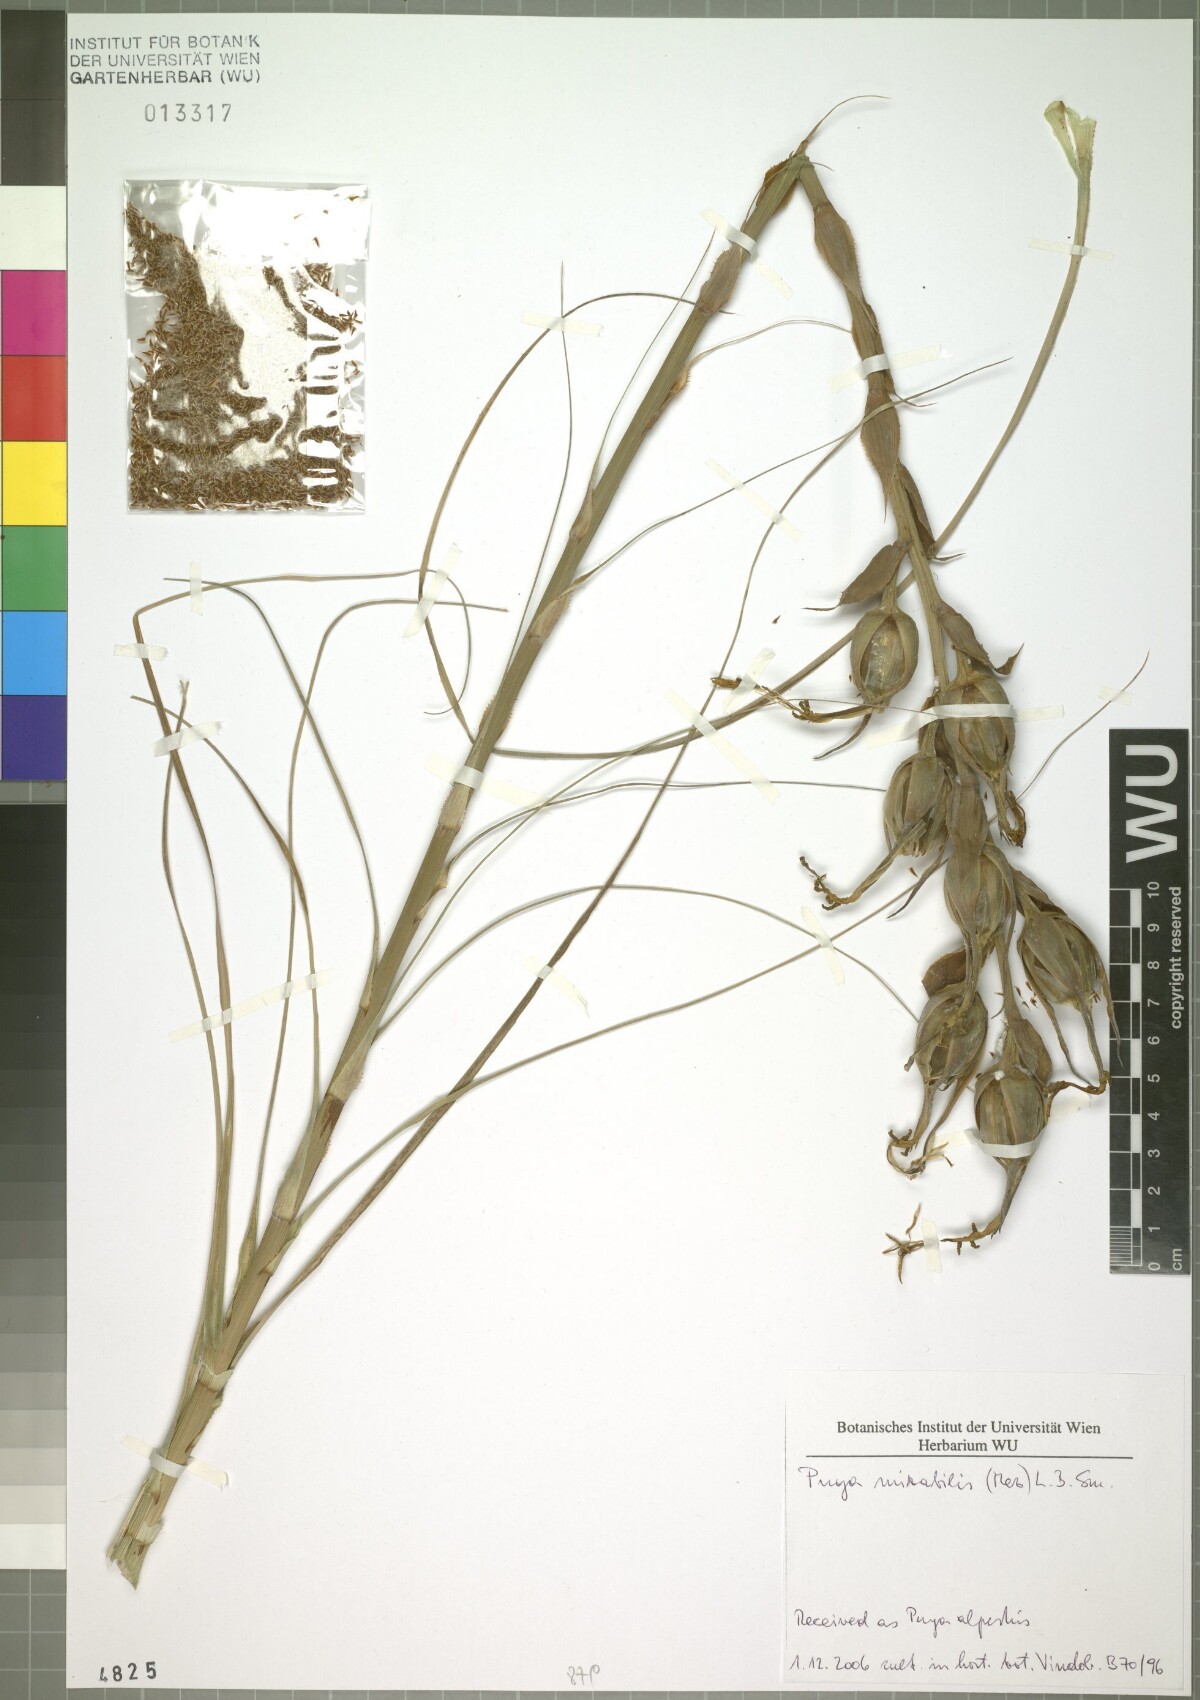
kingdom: Plantae
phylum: Tracheophyta
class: Liliopsida
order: Poales
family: Bromeliaceae
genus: Puya
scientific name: Puya mirabilis
